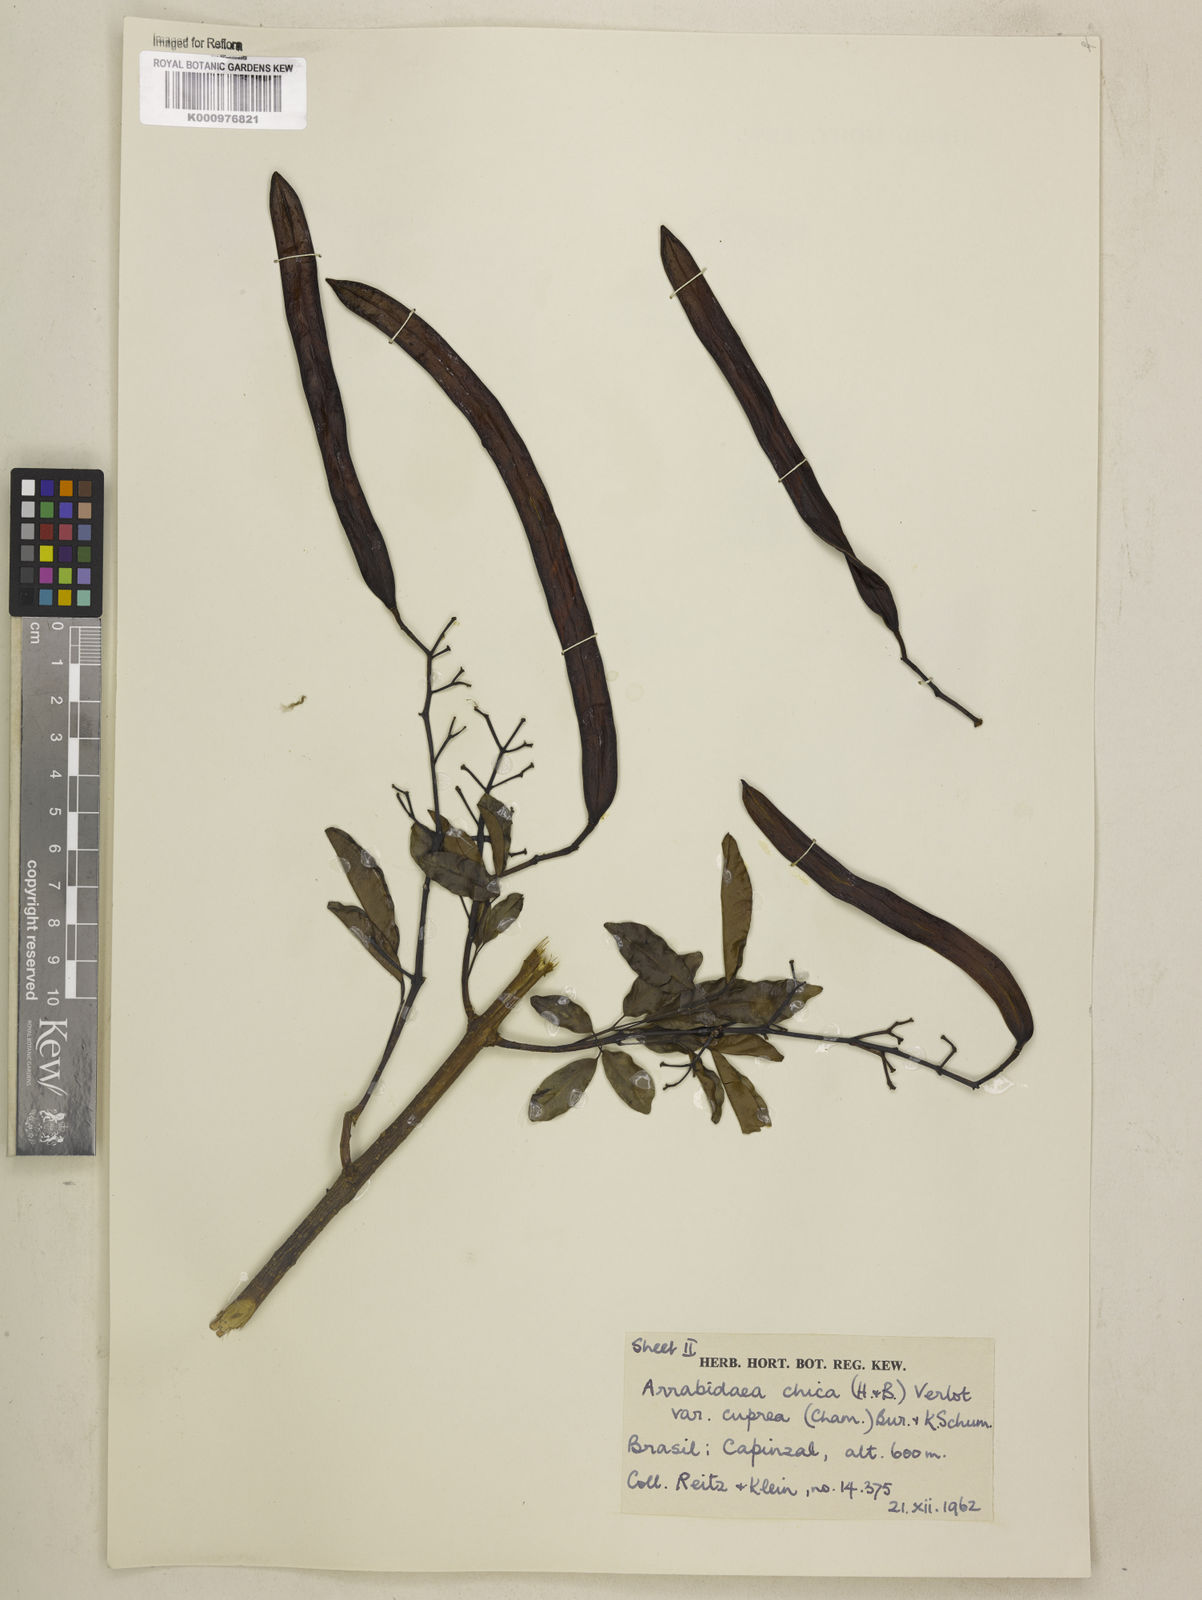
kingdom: Plantae
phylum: Tracheophyta
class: Magnoliopsida
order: Lamiales
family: Bignoniaceae
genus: Fridericia
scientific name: Fridericia chica
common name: Cricketvine
